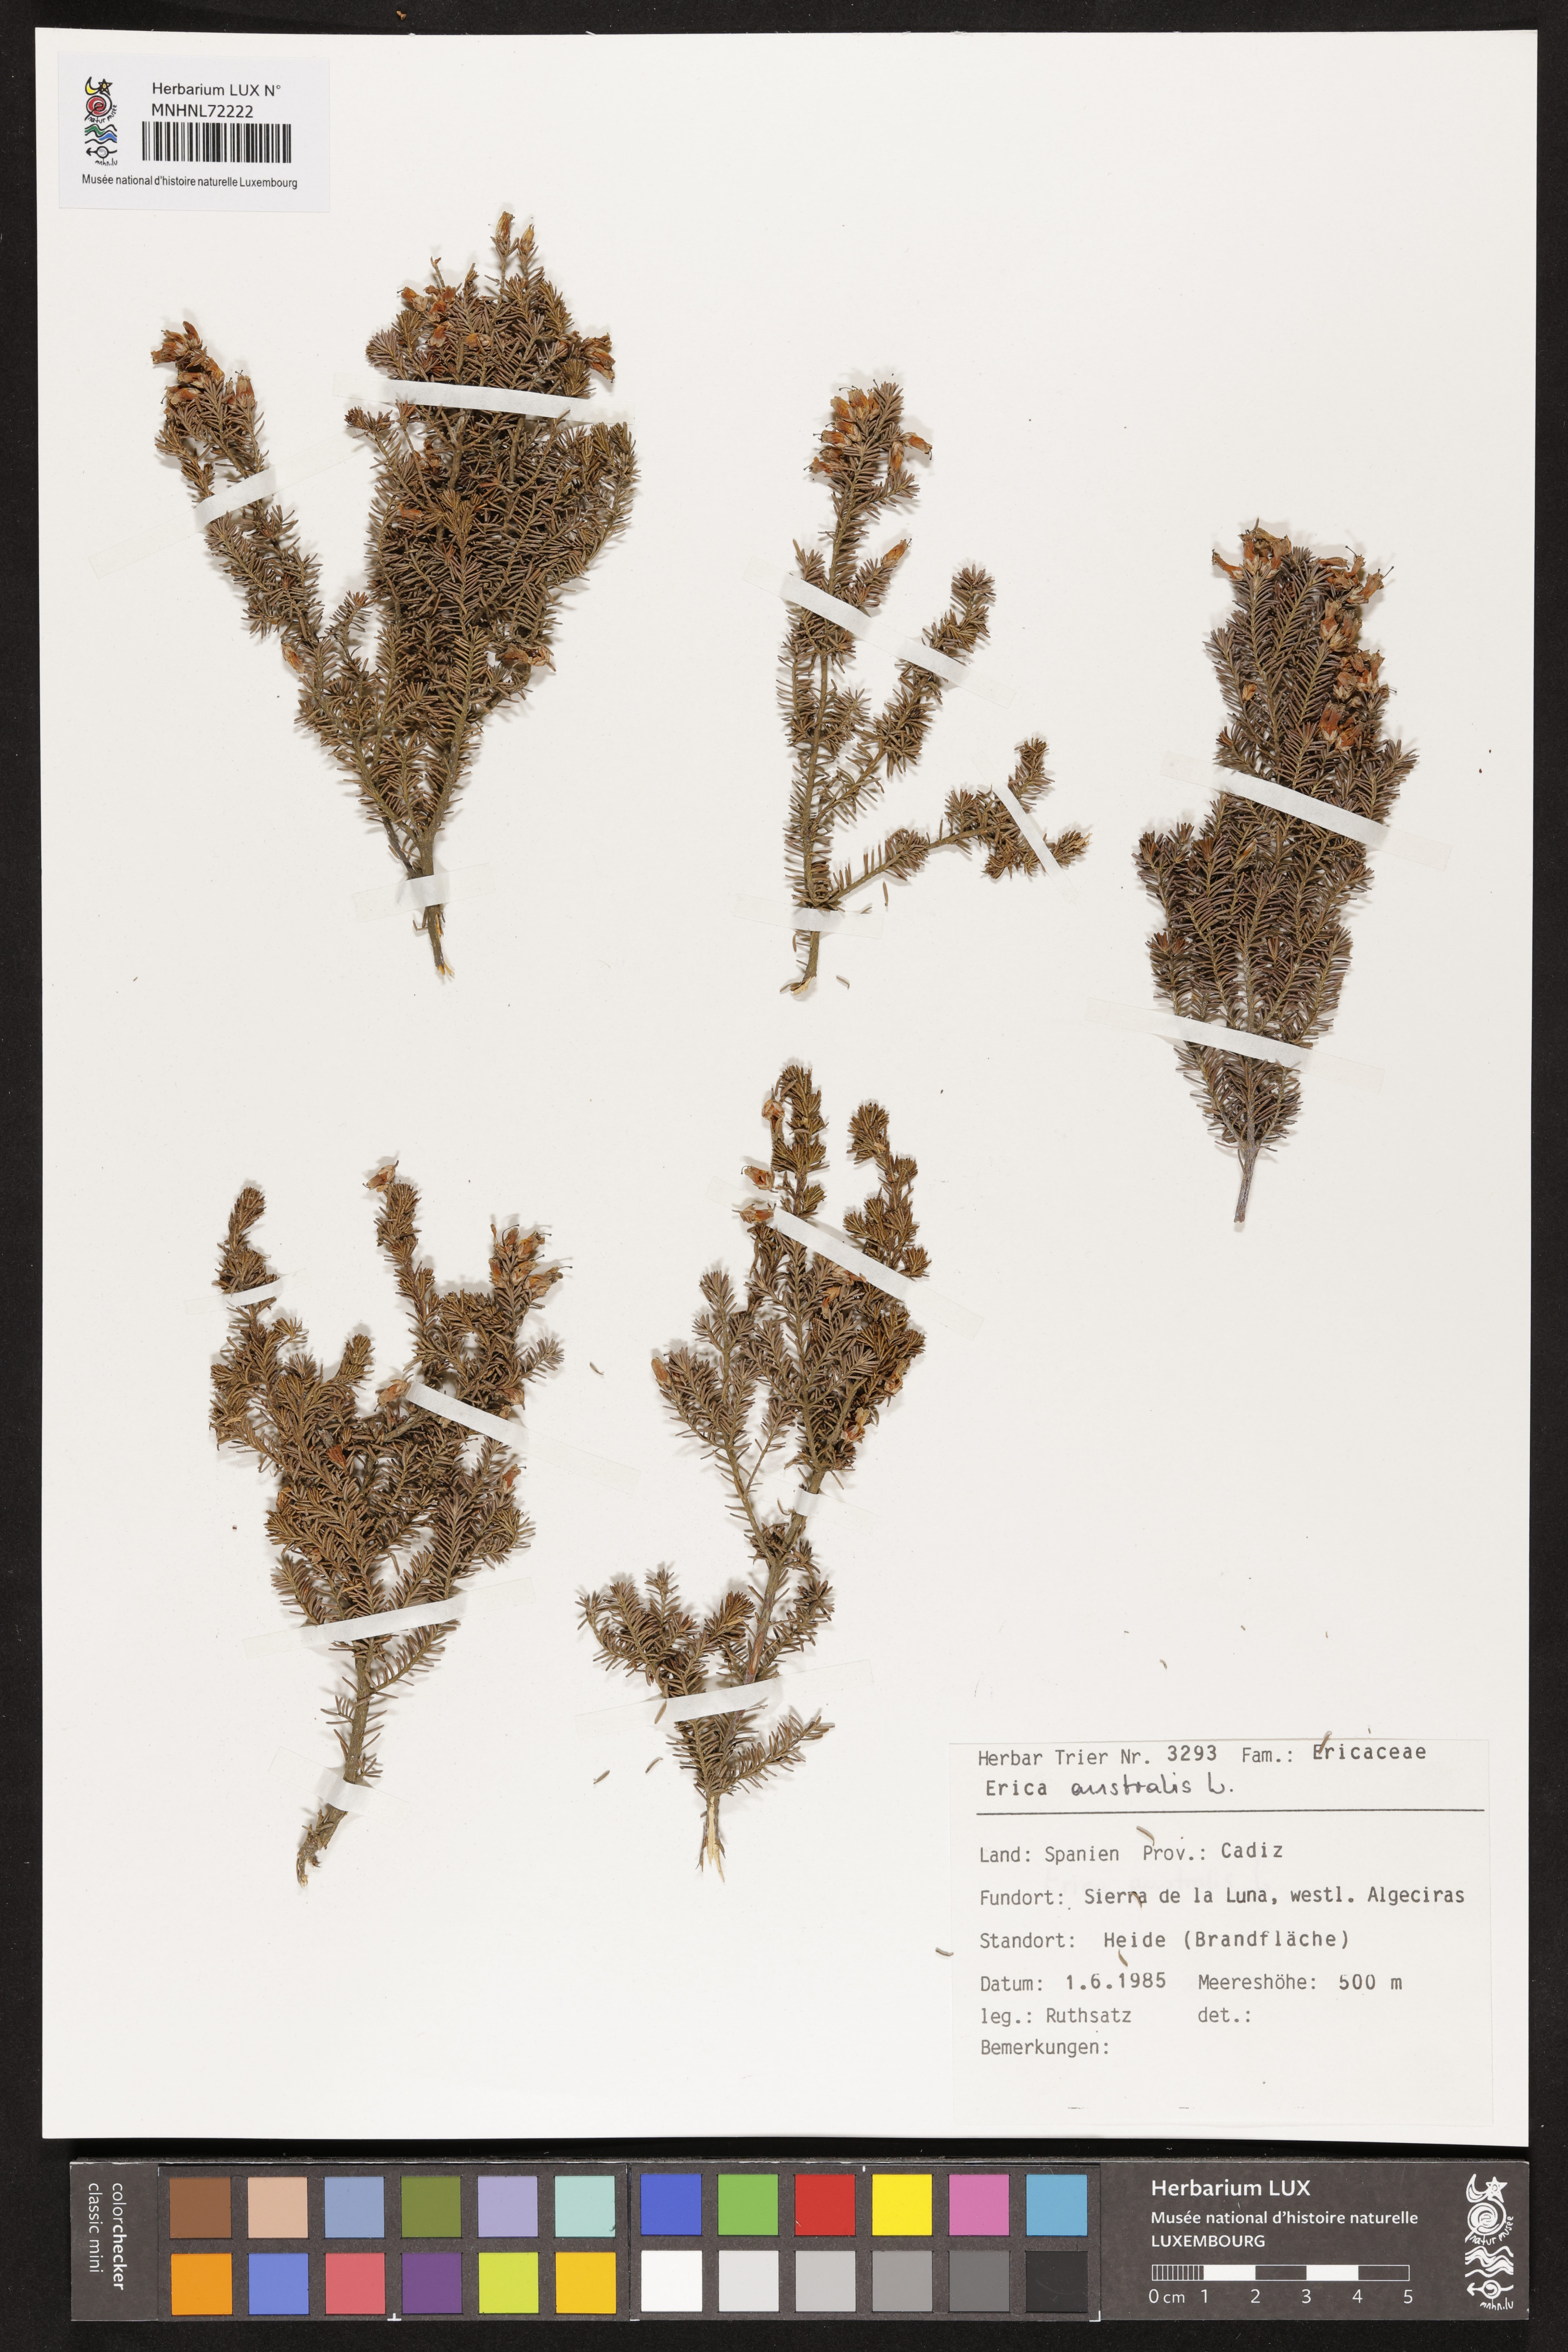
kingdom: Plantae
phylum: Tracheophyta
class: Magnoliopsida
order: Ericales
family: Ericaceae
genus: Erica
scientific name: Erica australis
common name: Spanish heath
